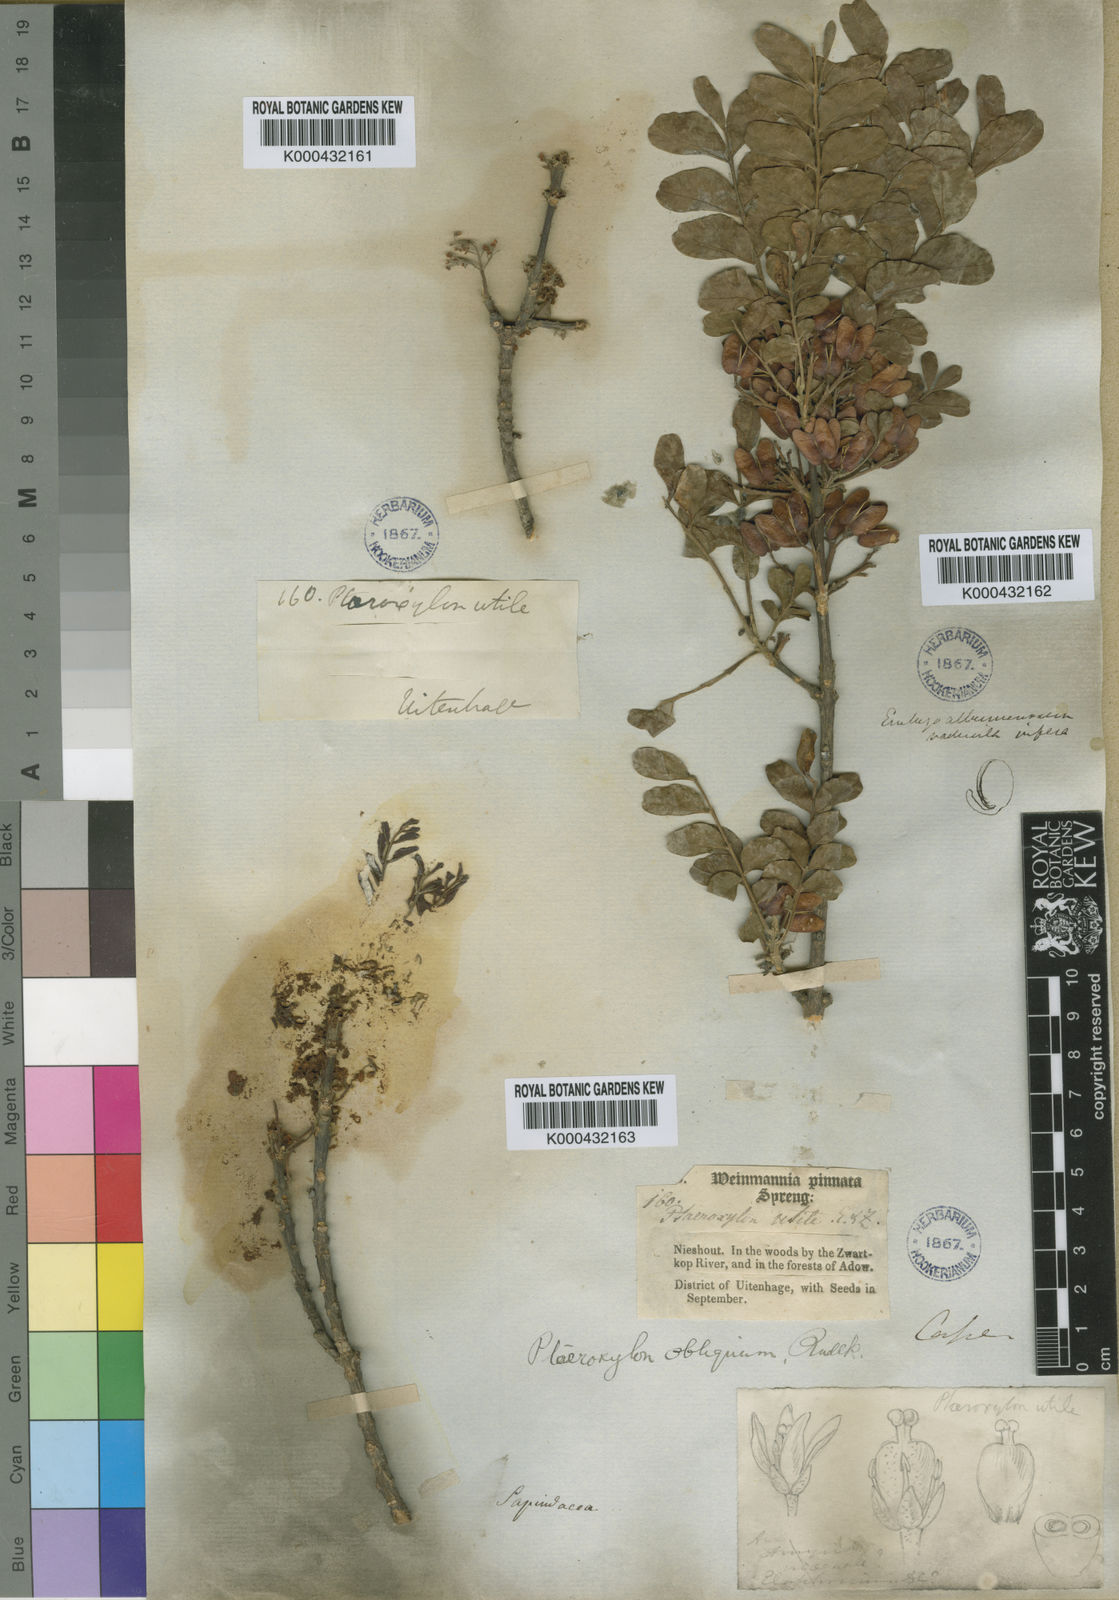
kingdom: Plantae
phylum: Tracheophyta
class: Magnoliopsida
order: Sapindales
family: Rutaceae
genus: Ptaeroxylon
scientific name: Ptaeroxylon obliquum
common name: Sneezewood
